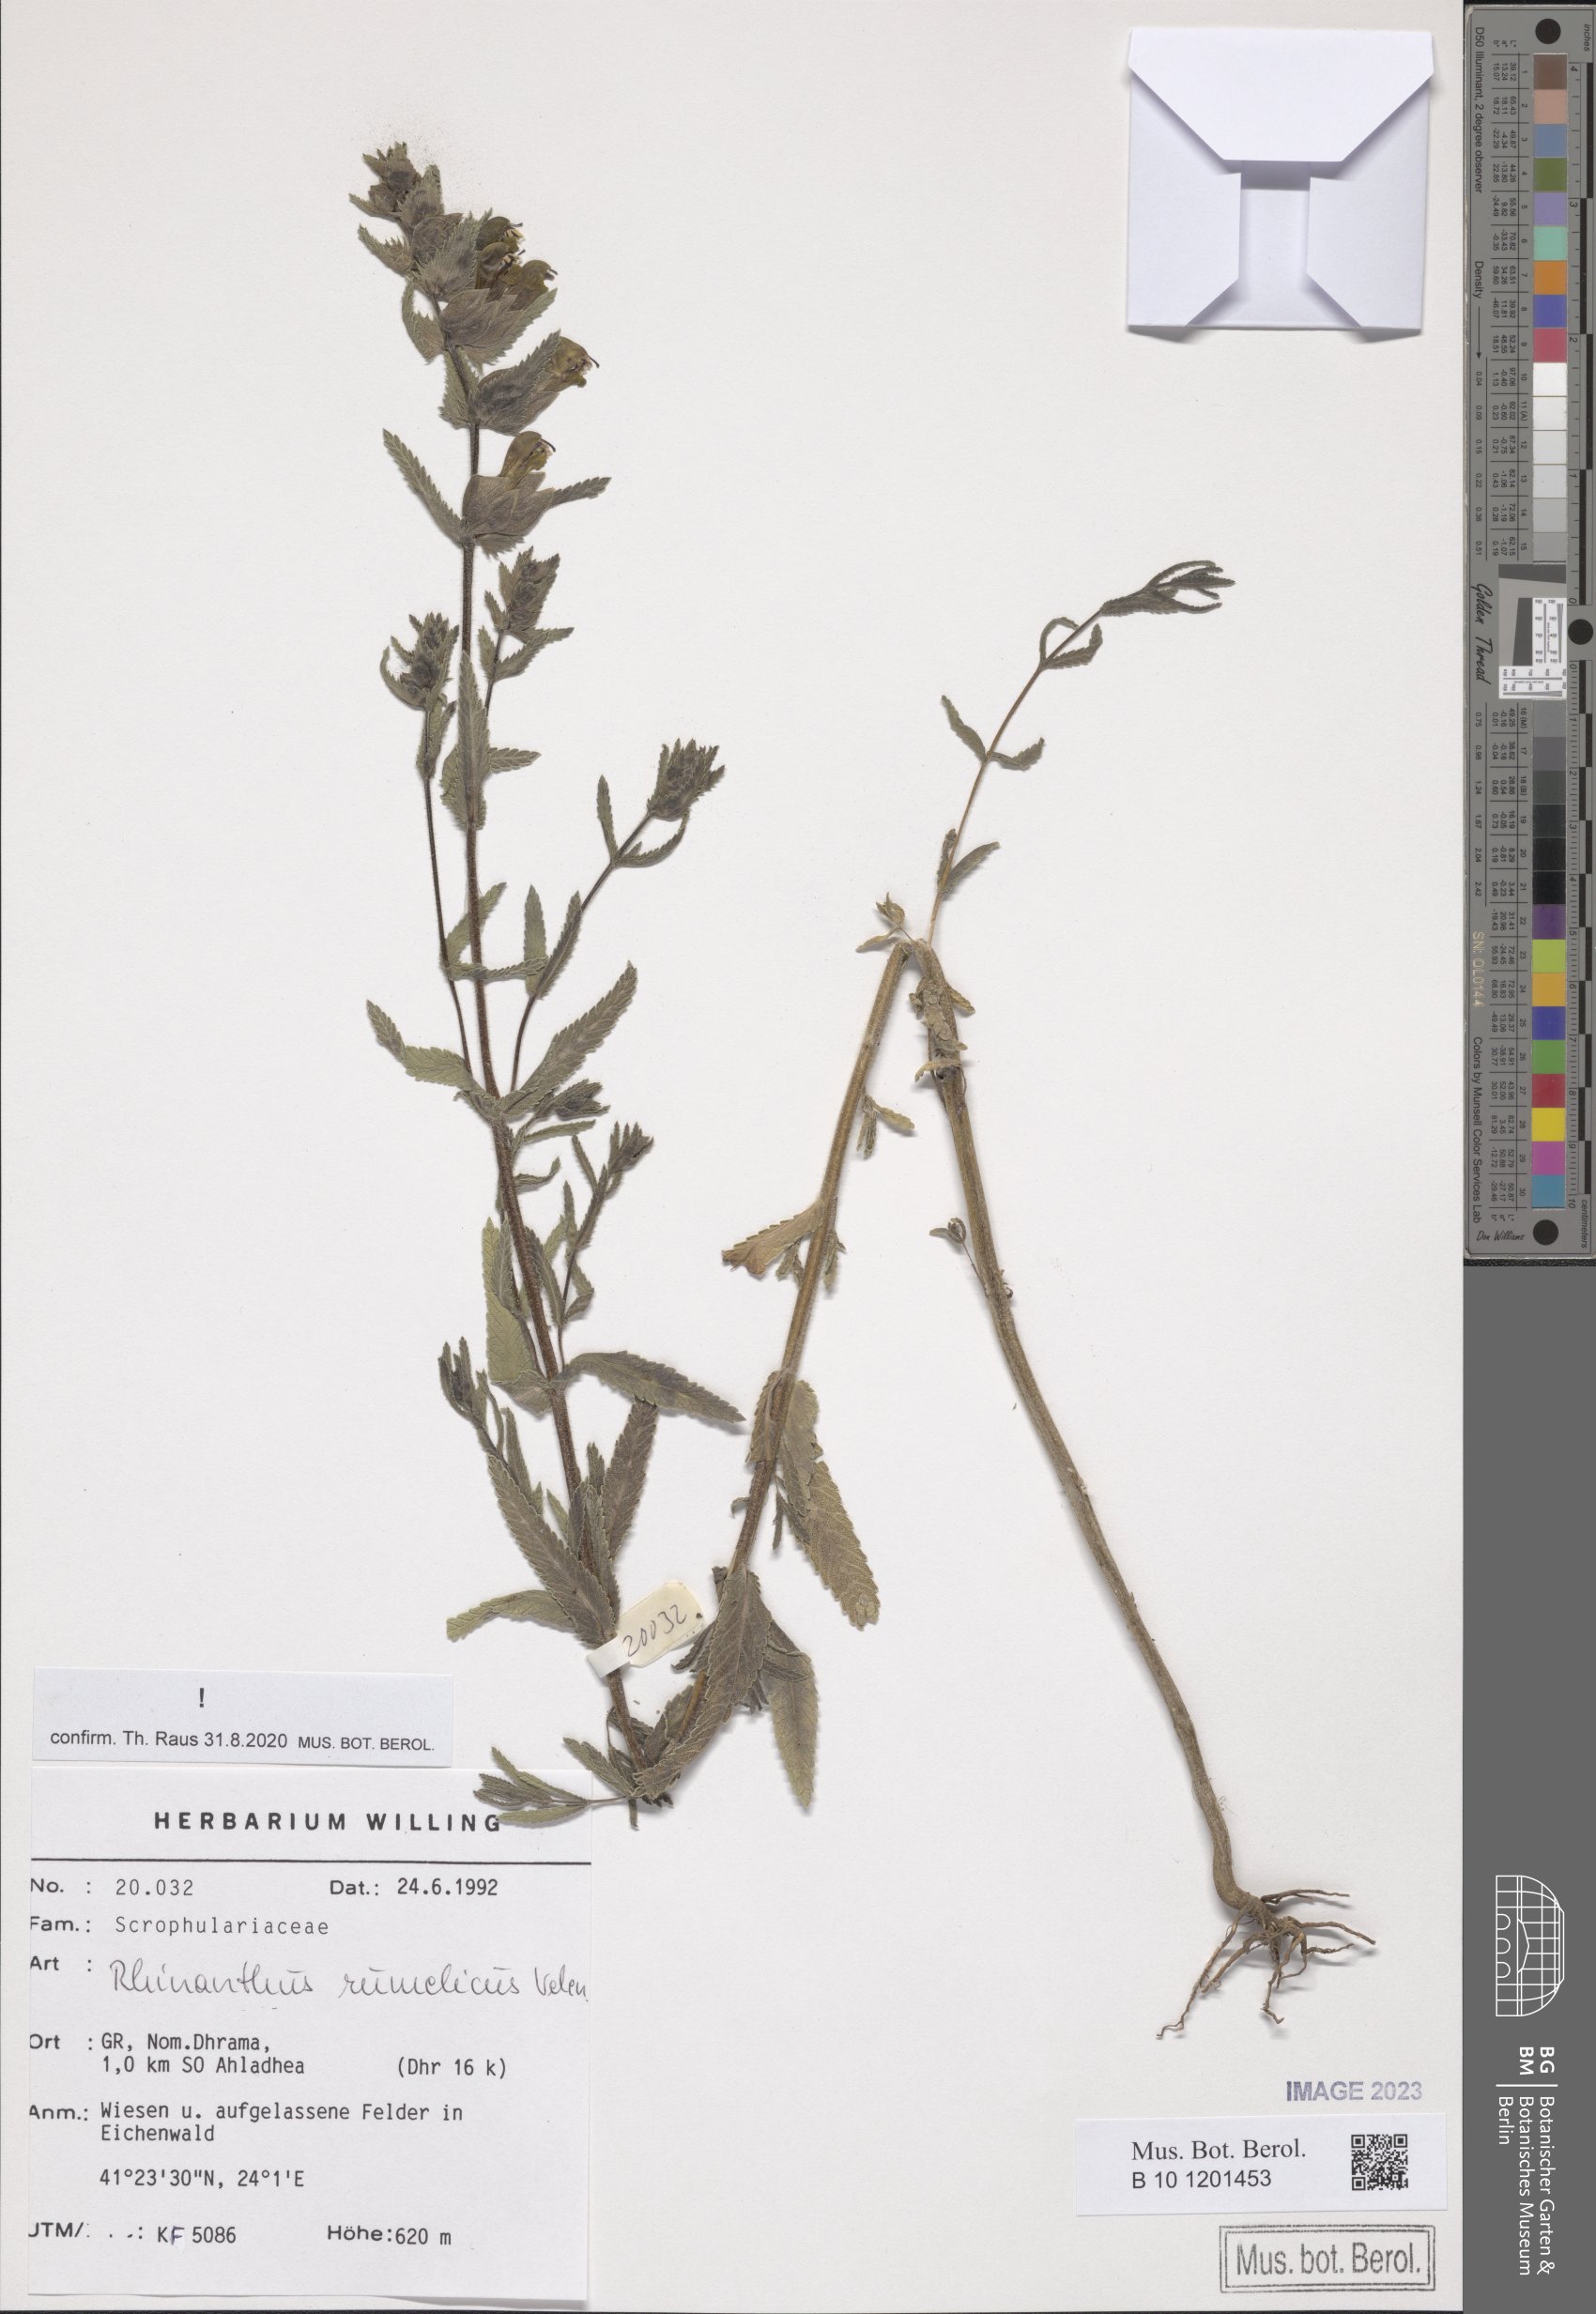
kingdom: Plantae
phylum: Tracheophyta
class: Magnoliopsida
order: Lamiales
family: Orobanchaceae
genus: Rhinanthus
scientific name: Rhinanthus rumelicus
